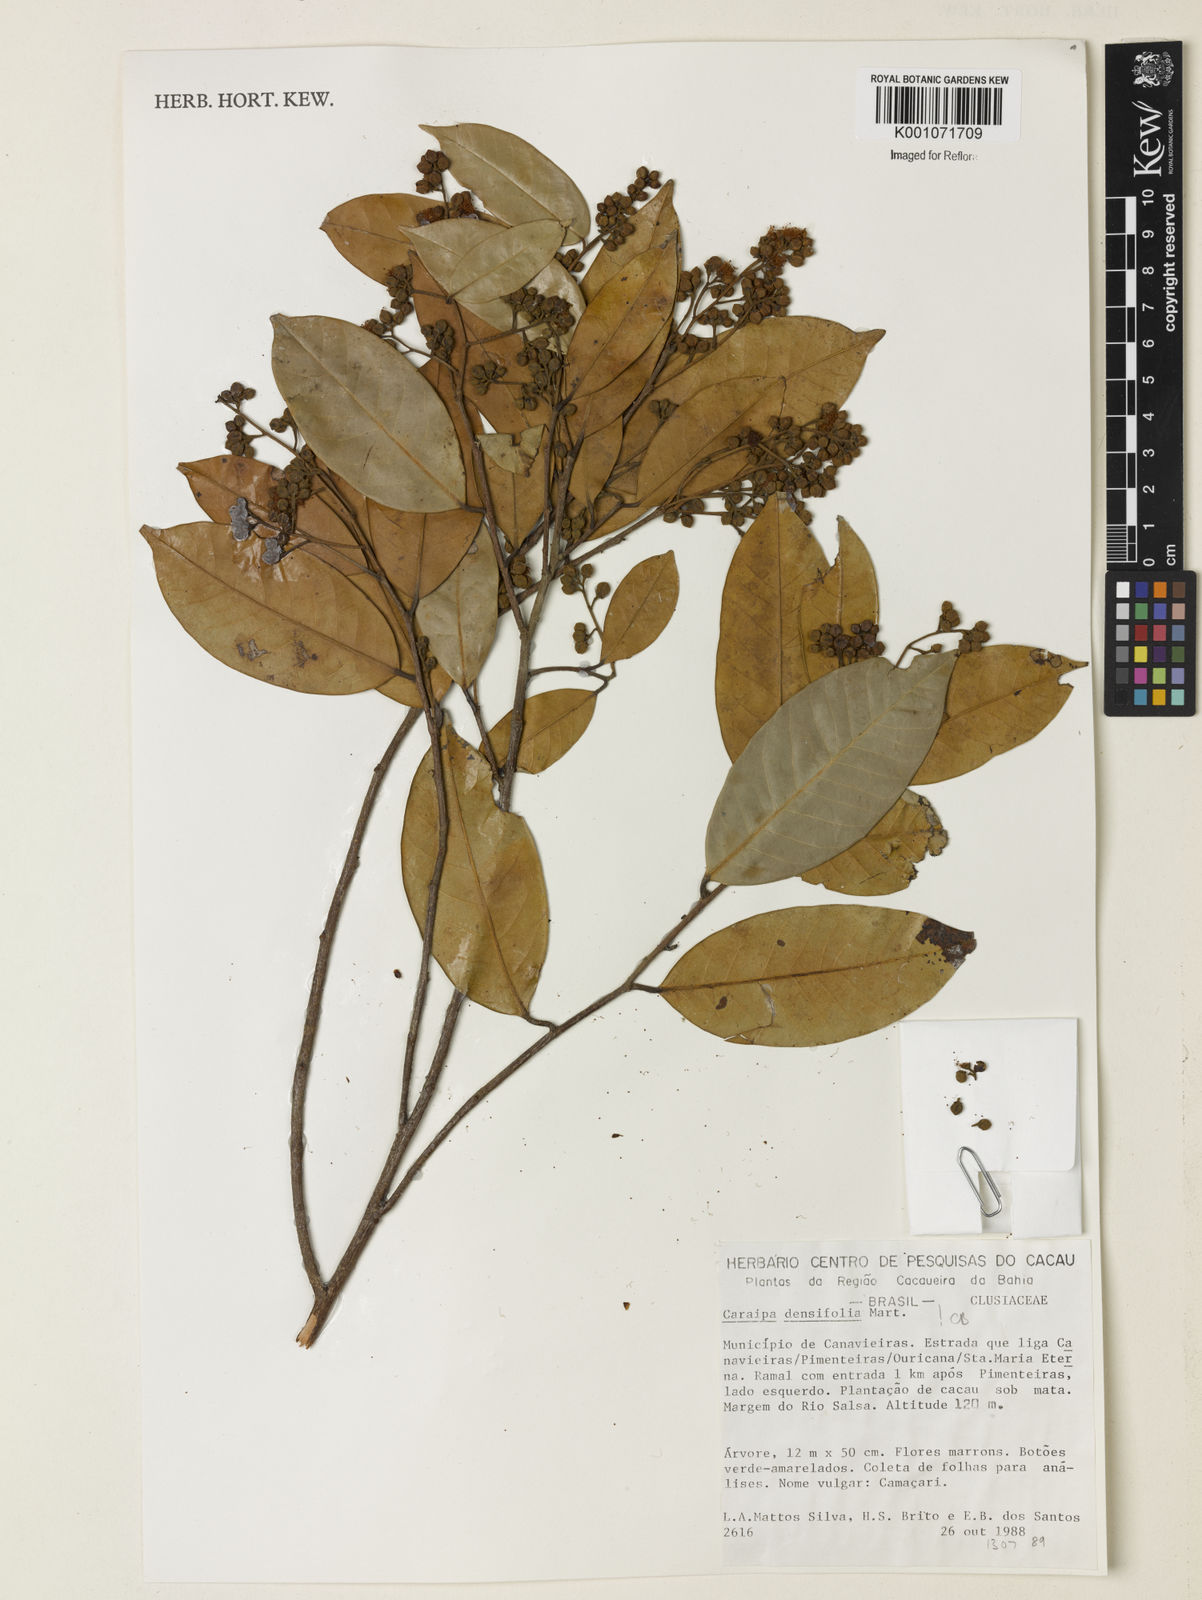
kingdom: Plantae
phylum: Tracheophyta
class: Magnoliopsida
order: Malpighiales
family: Calophyllaceae
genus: Caraipa
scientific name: Caraipa densifolia
